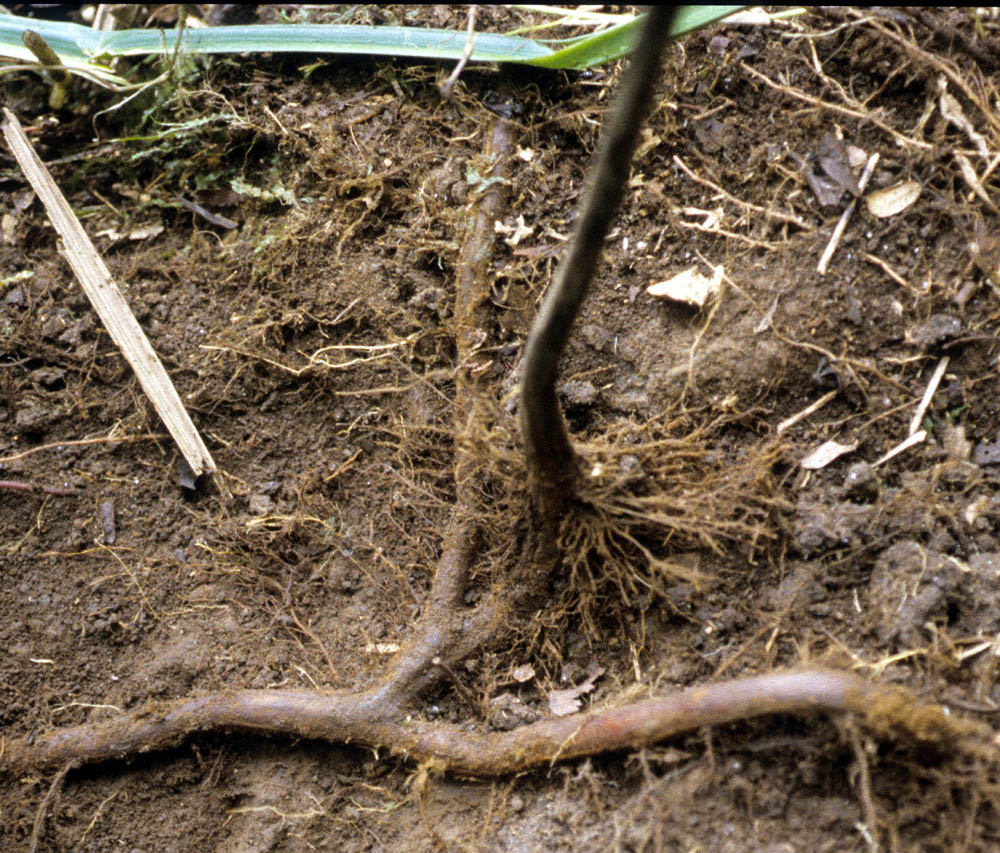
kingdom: Plantae
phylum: Tracheophyta
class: Polypodiopsida
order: Polypodiales
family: Dennstaedtiaceae
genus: Dennstaedtia
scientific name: Dennstaedtia cicutaria
